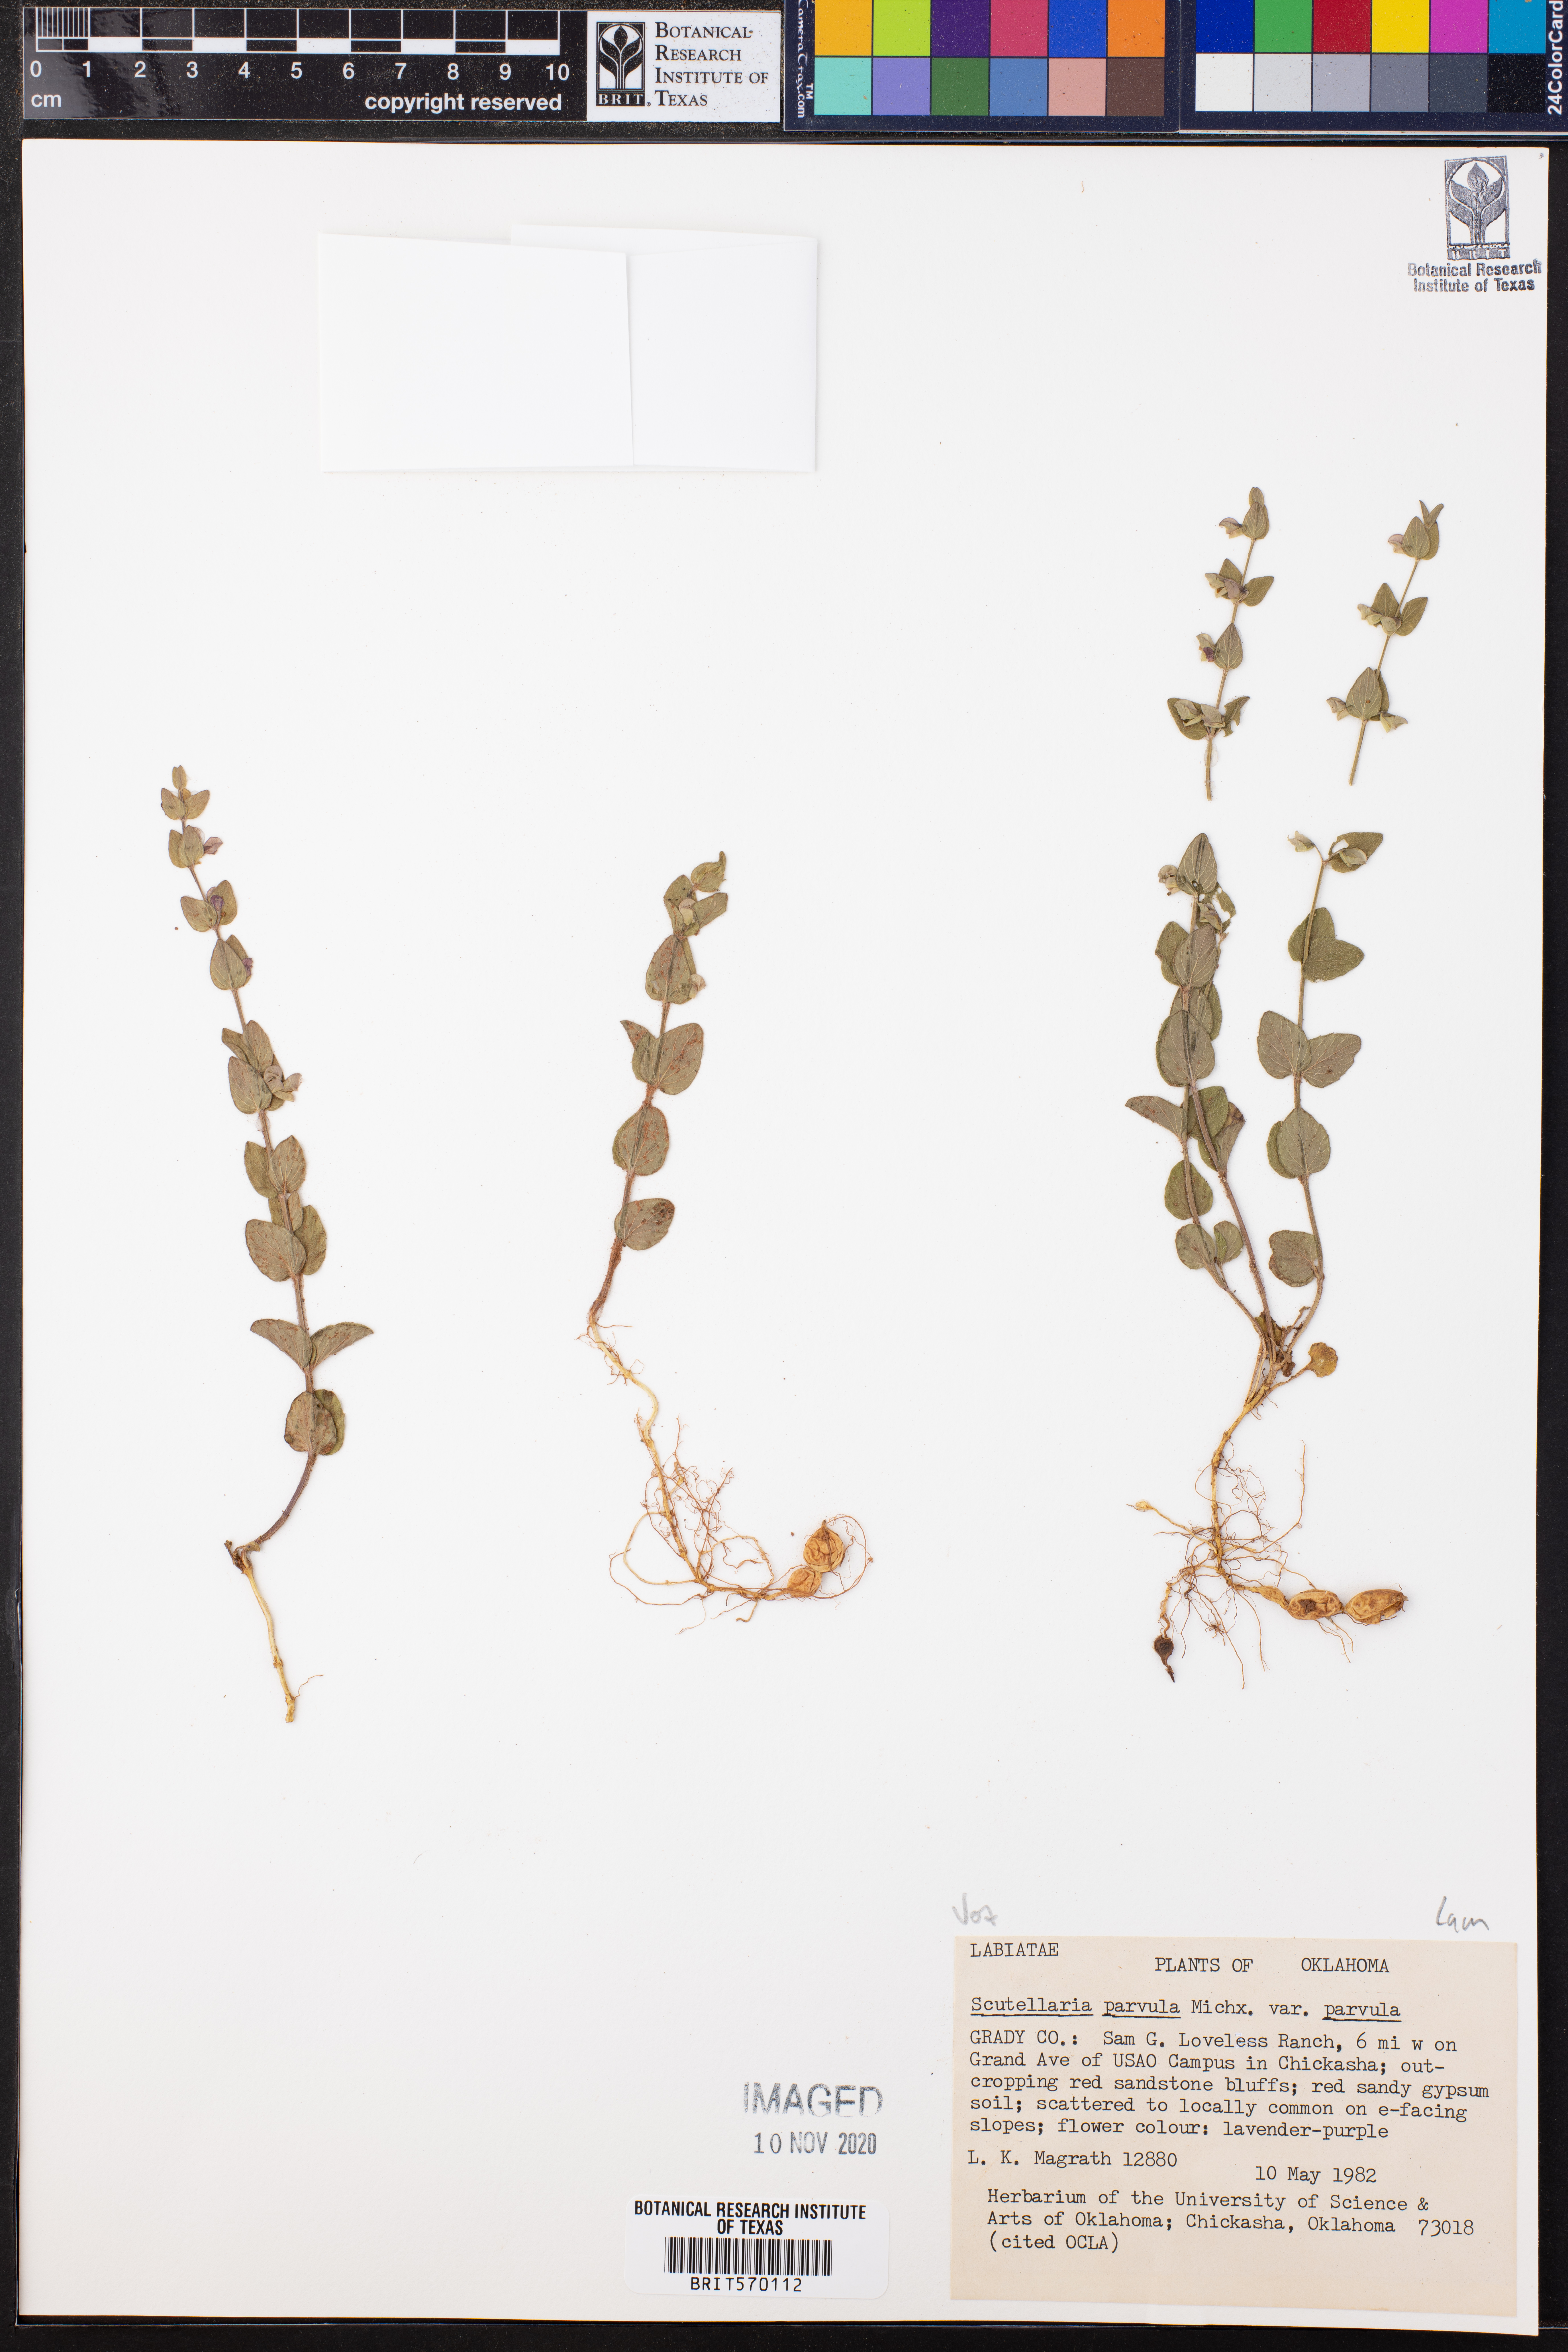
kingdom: Plantae
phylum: Tracheophyta
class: Magnoliopsida
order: Lamiales
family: Lamiaceae
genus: Scutellaria
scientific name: Scutellaria parvula
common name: Little scullcap
